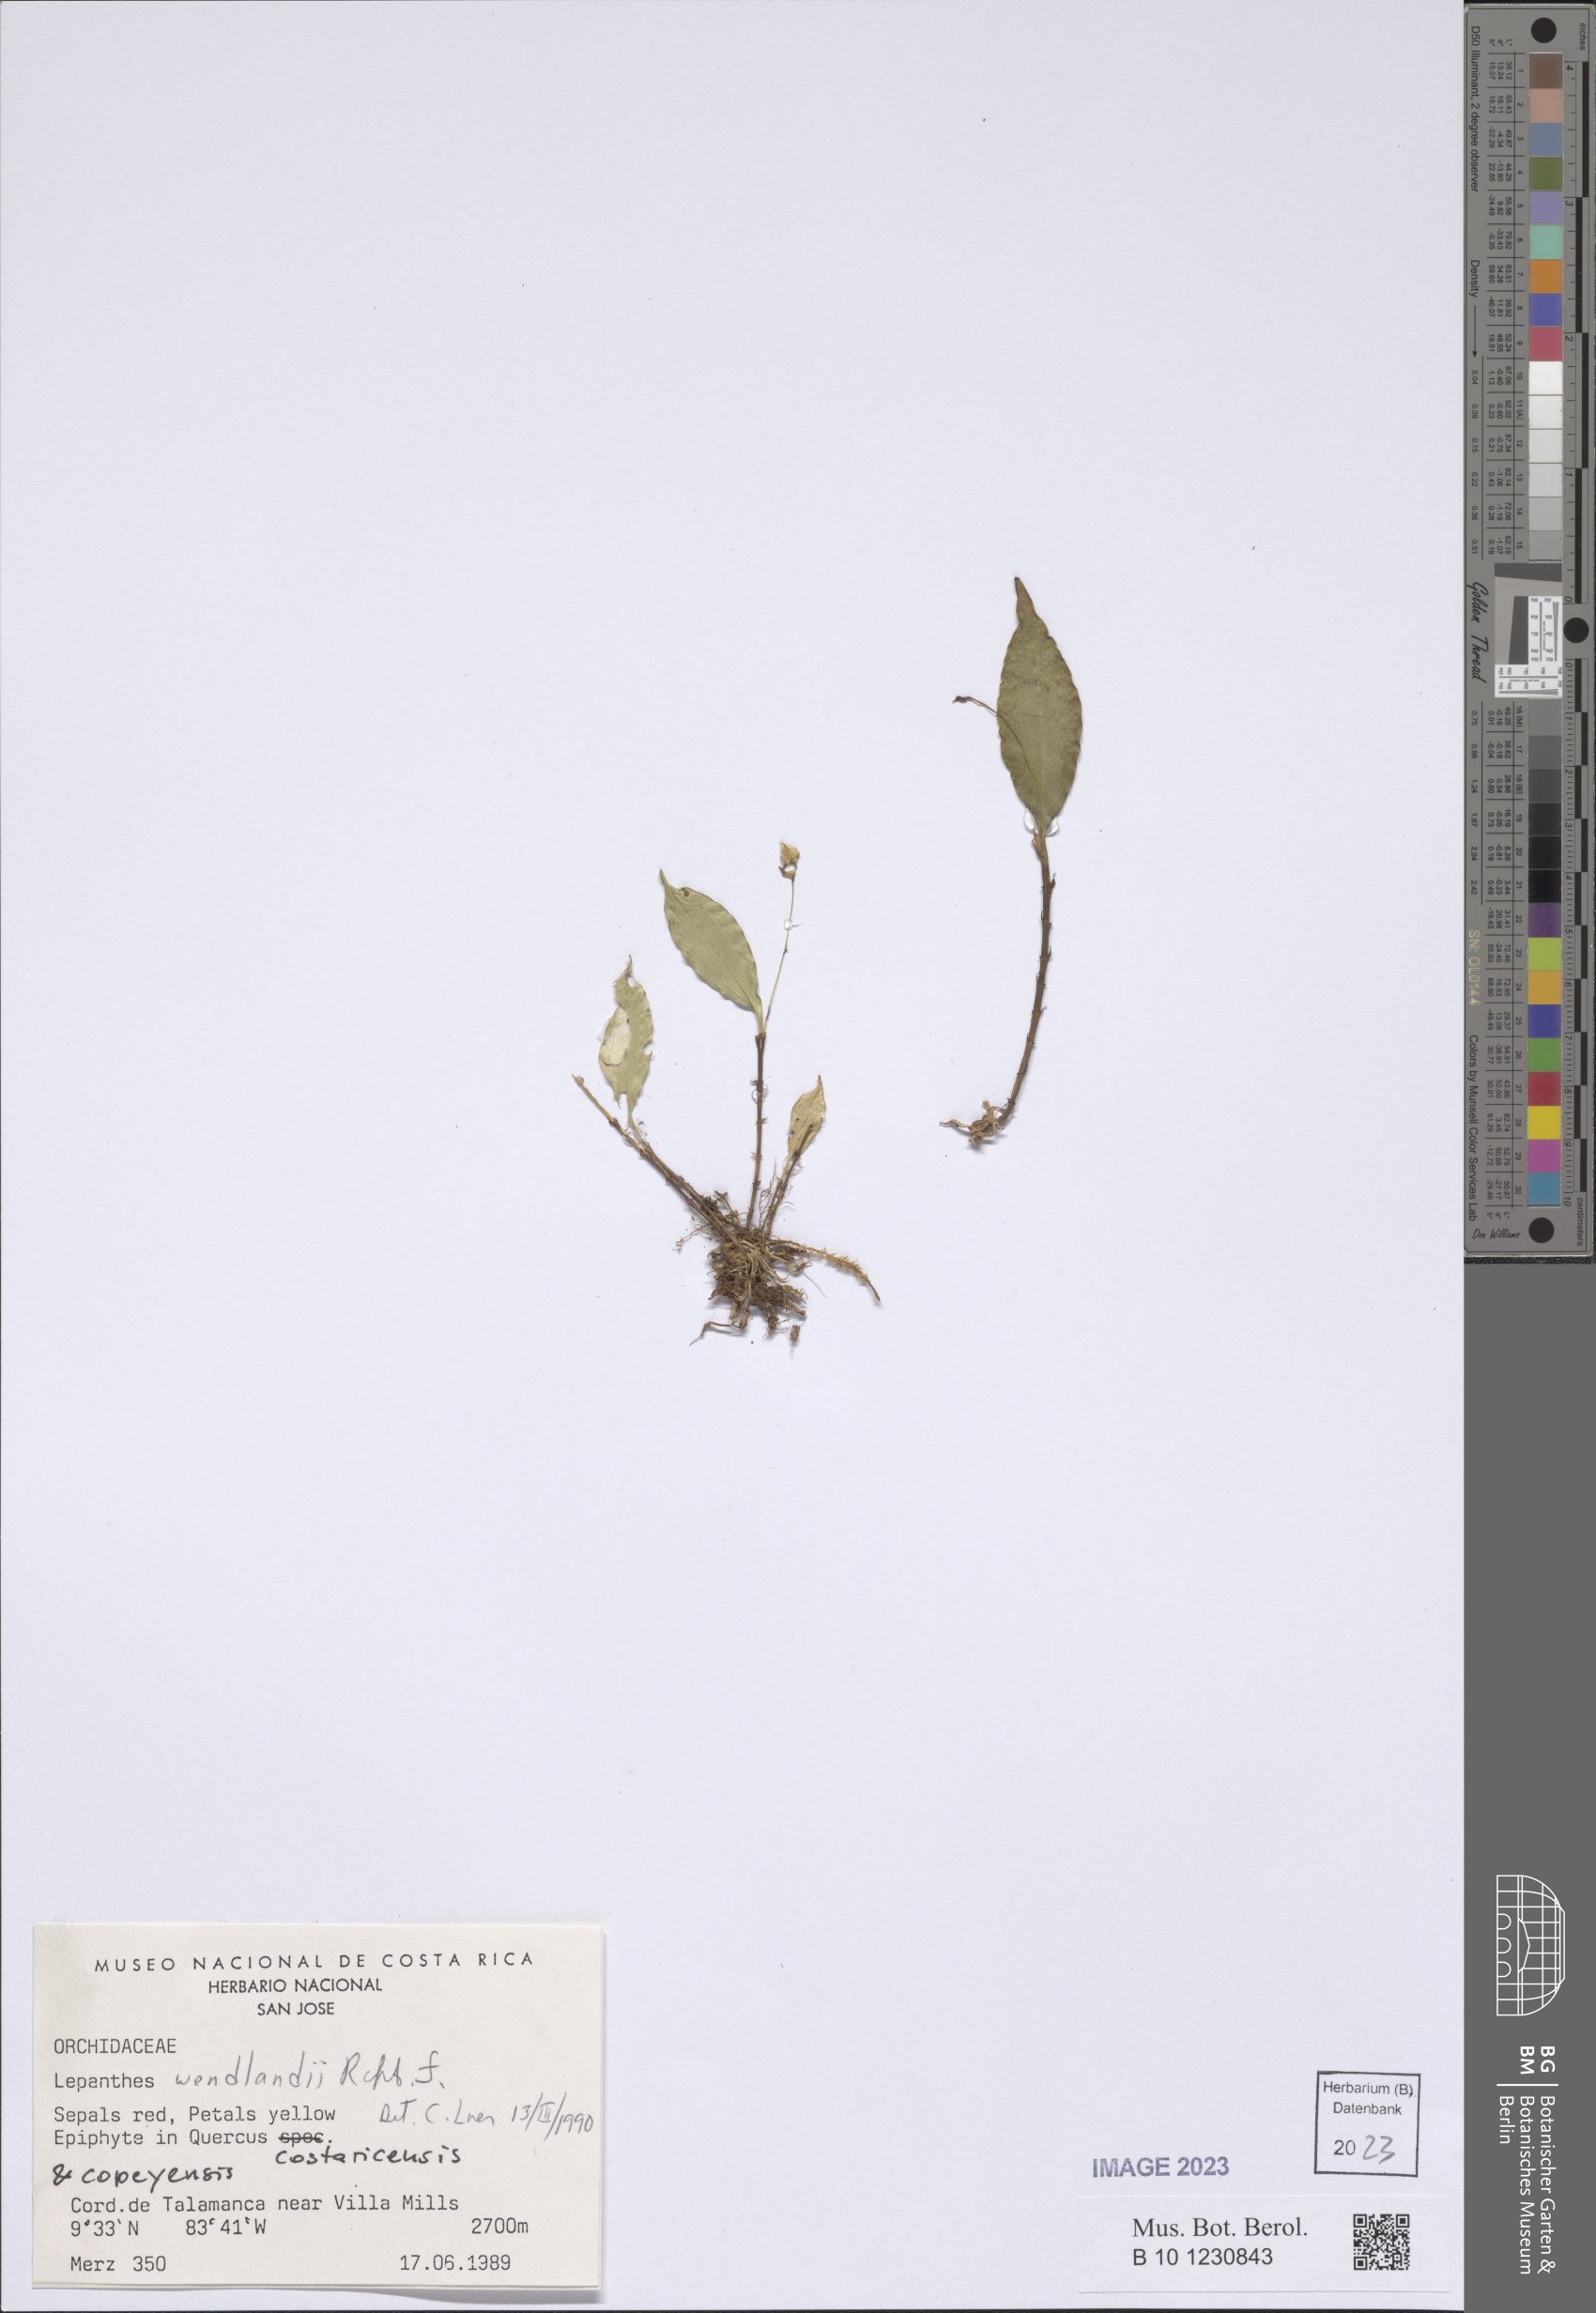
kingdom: Plantae
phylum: Tracheophyta
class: Liliopsida
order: Asparagales
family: Orchidaceae
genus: Lepanthes
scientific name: Lepanthes wendlandii
